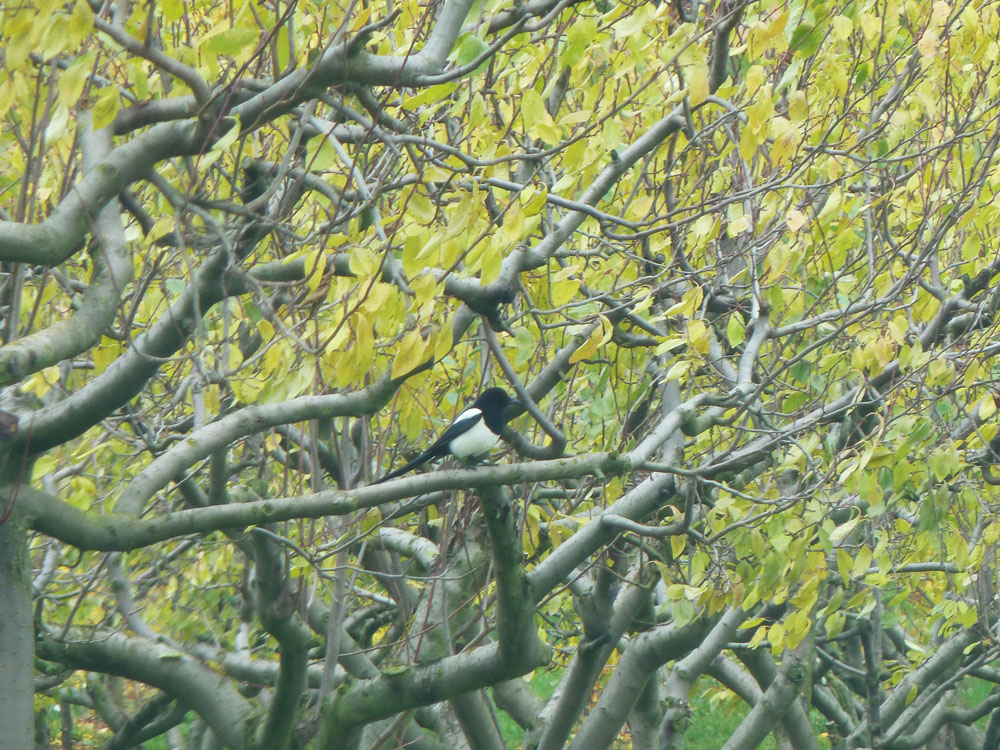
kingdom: Animalia
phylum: Chordata
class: Aves
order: Passeriformes
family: Corvidae
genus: Pica
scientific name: Pica pica
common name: Eurasian magpie
